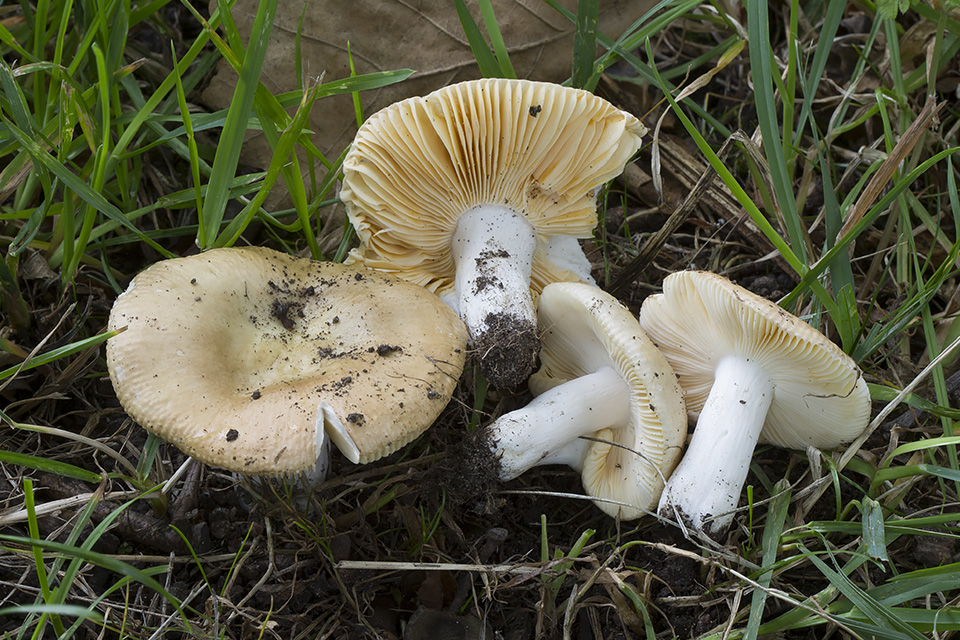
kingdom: Fungi
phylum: Basidiomycota
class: Agaricomycetes
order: Russulales
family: Russulaceae
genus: Russula
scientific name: Russula odorata
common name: duft-skørhat
